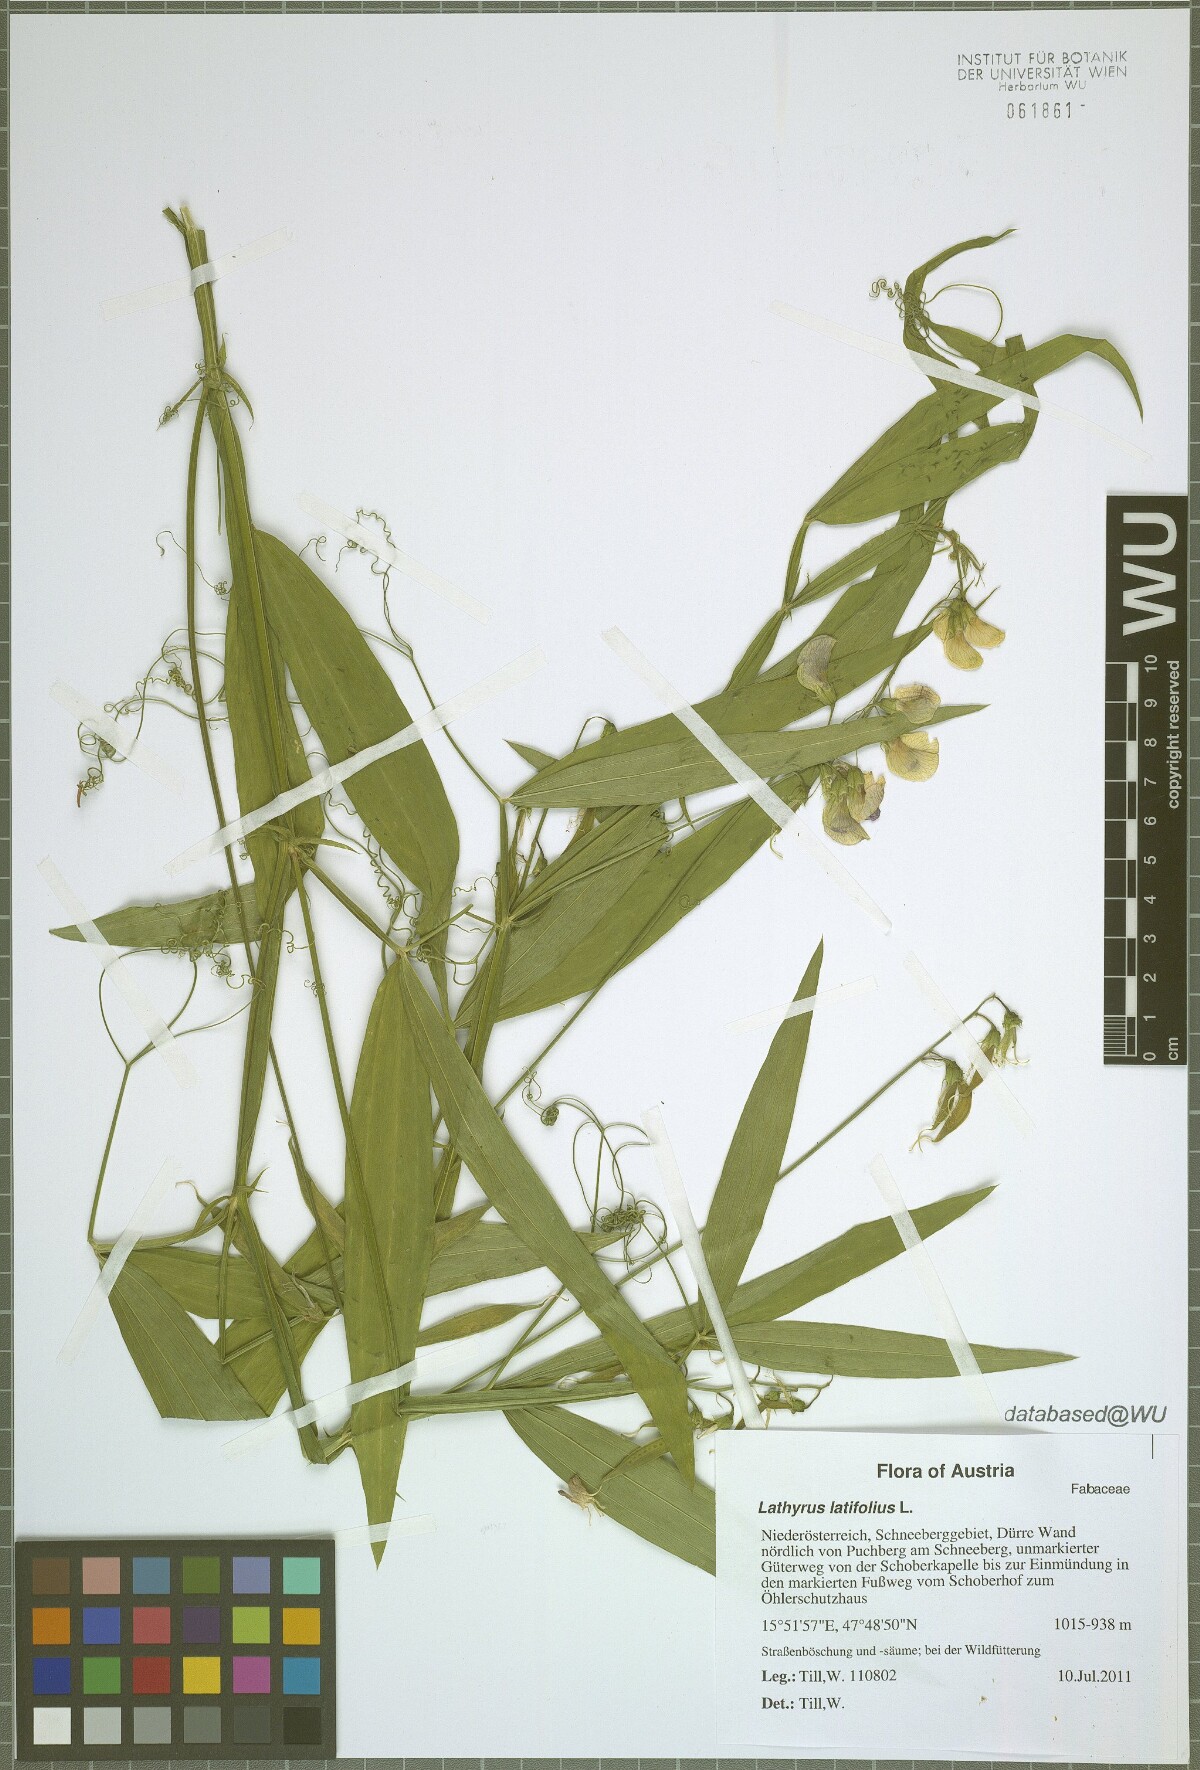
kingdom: Plantae
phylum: Tracheophyta
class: Magnoliopsida
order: Fabales
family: Fabaceae
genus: Lathyrus
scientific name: Lathyrus latifolius
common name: Perennial pea
